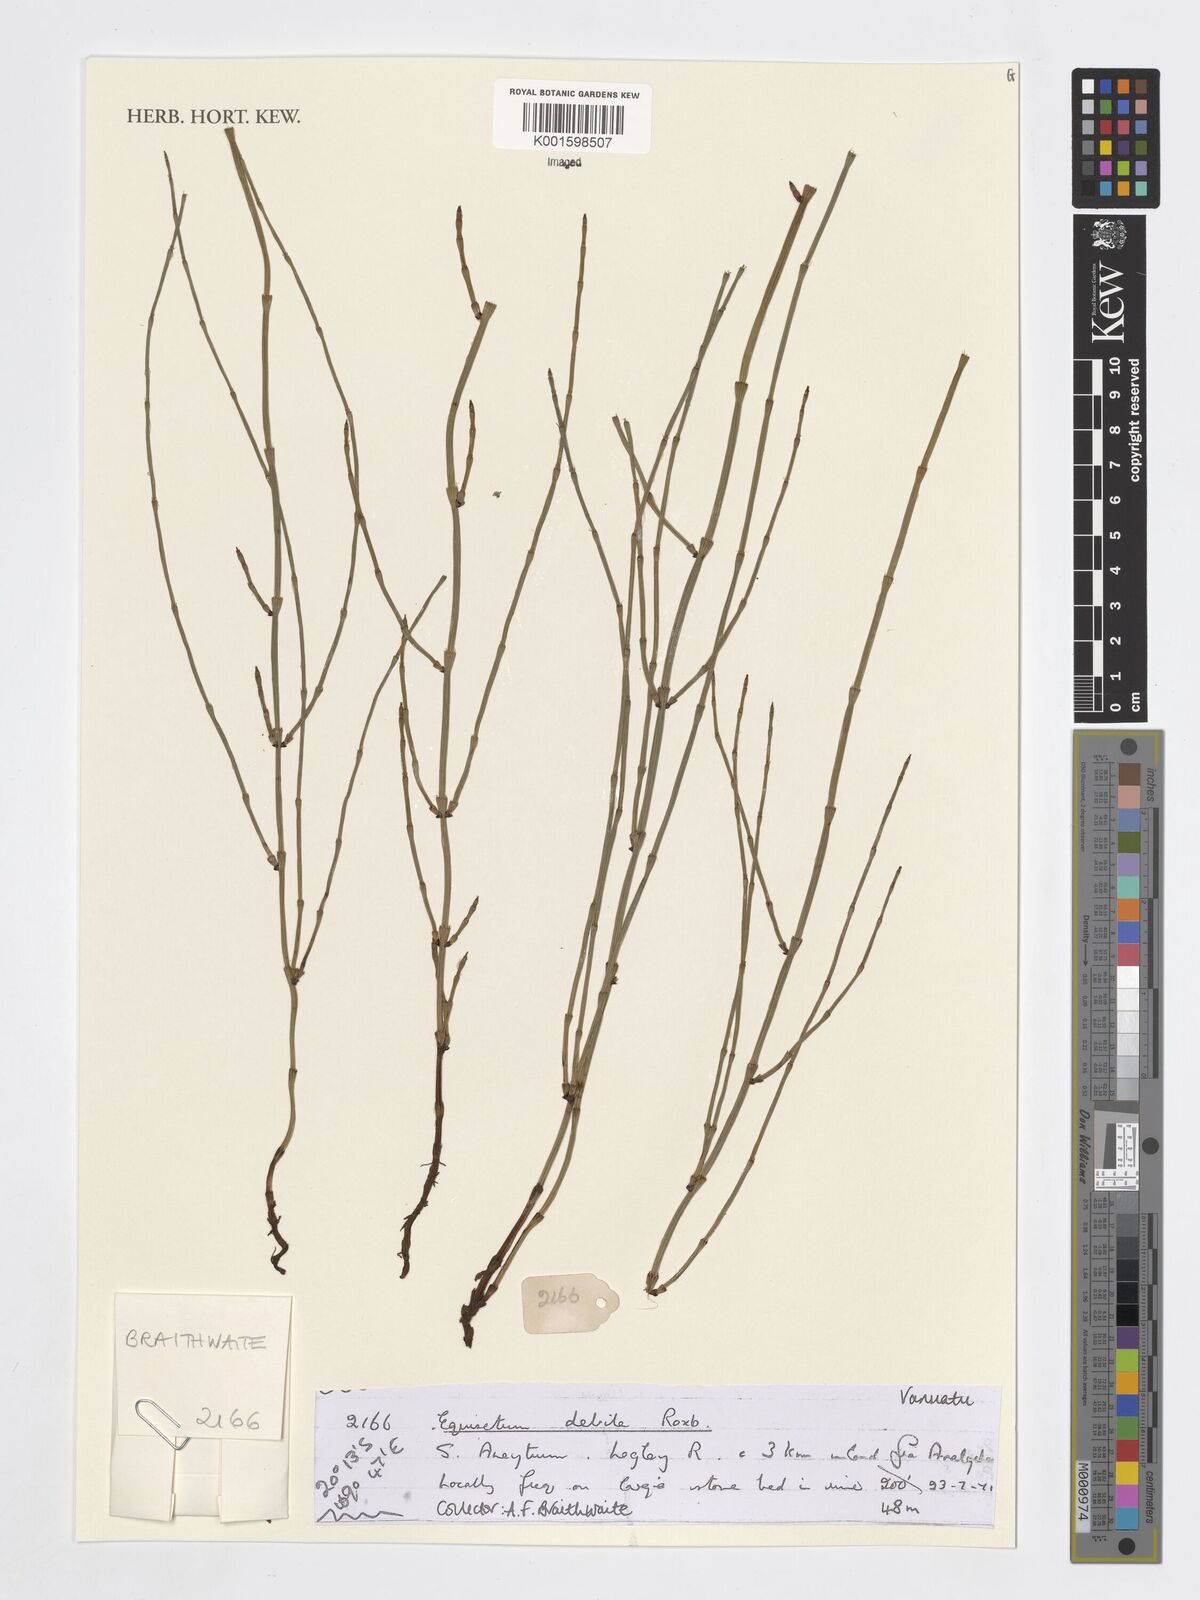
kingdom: Plantae
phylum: Tracheophyta
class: Polypodiopsida
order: Equisetales
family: Equisetaceae
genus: Equisetum
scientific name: Equisetum ramosissimum
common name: Branched horsetail
